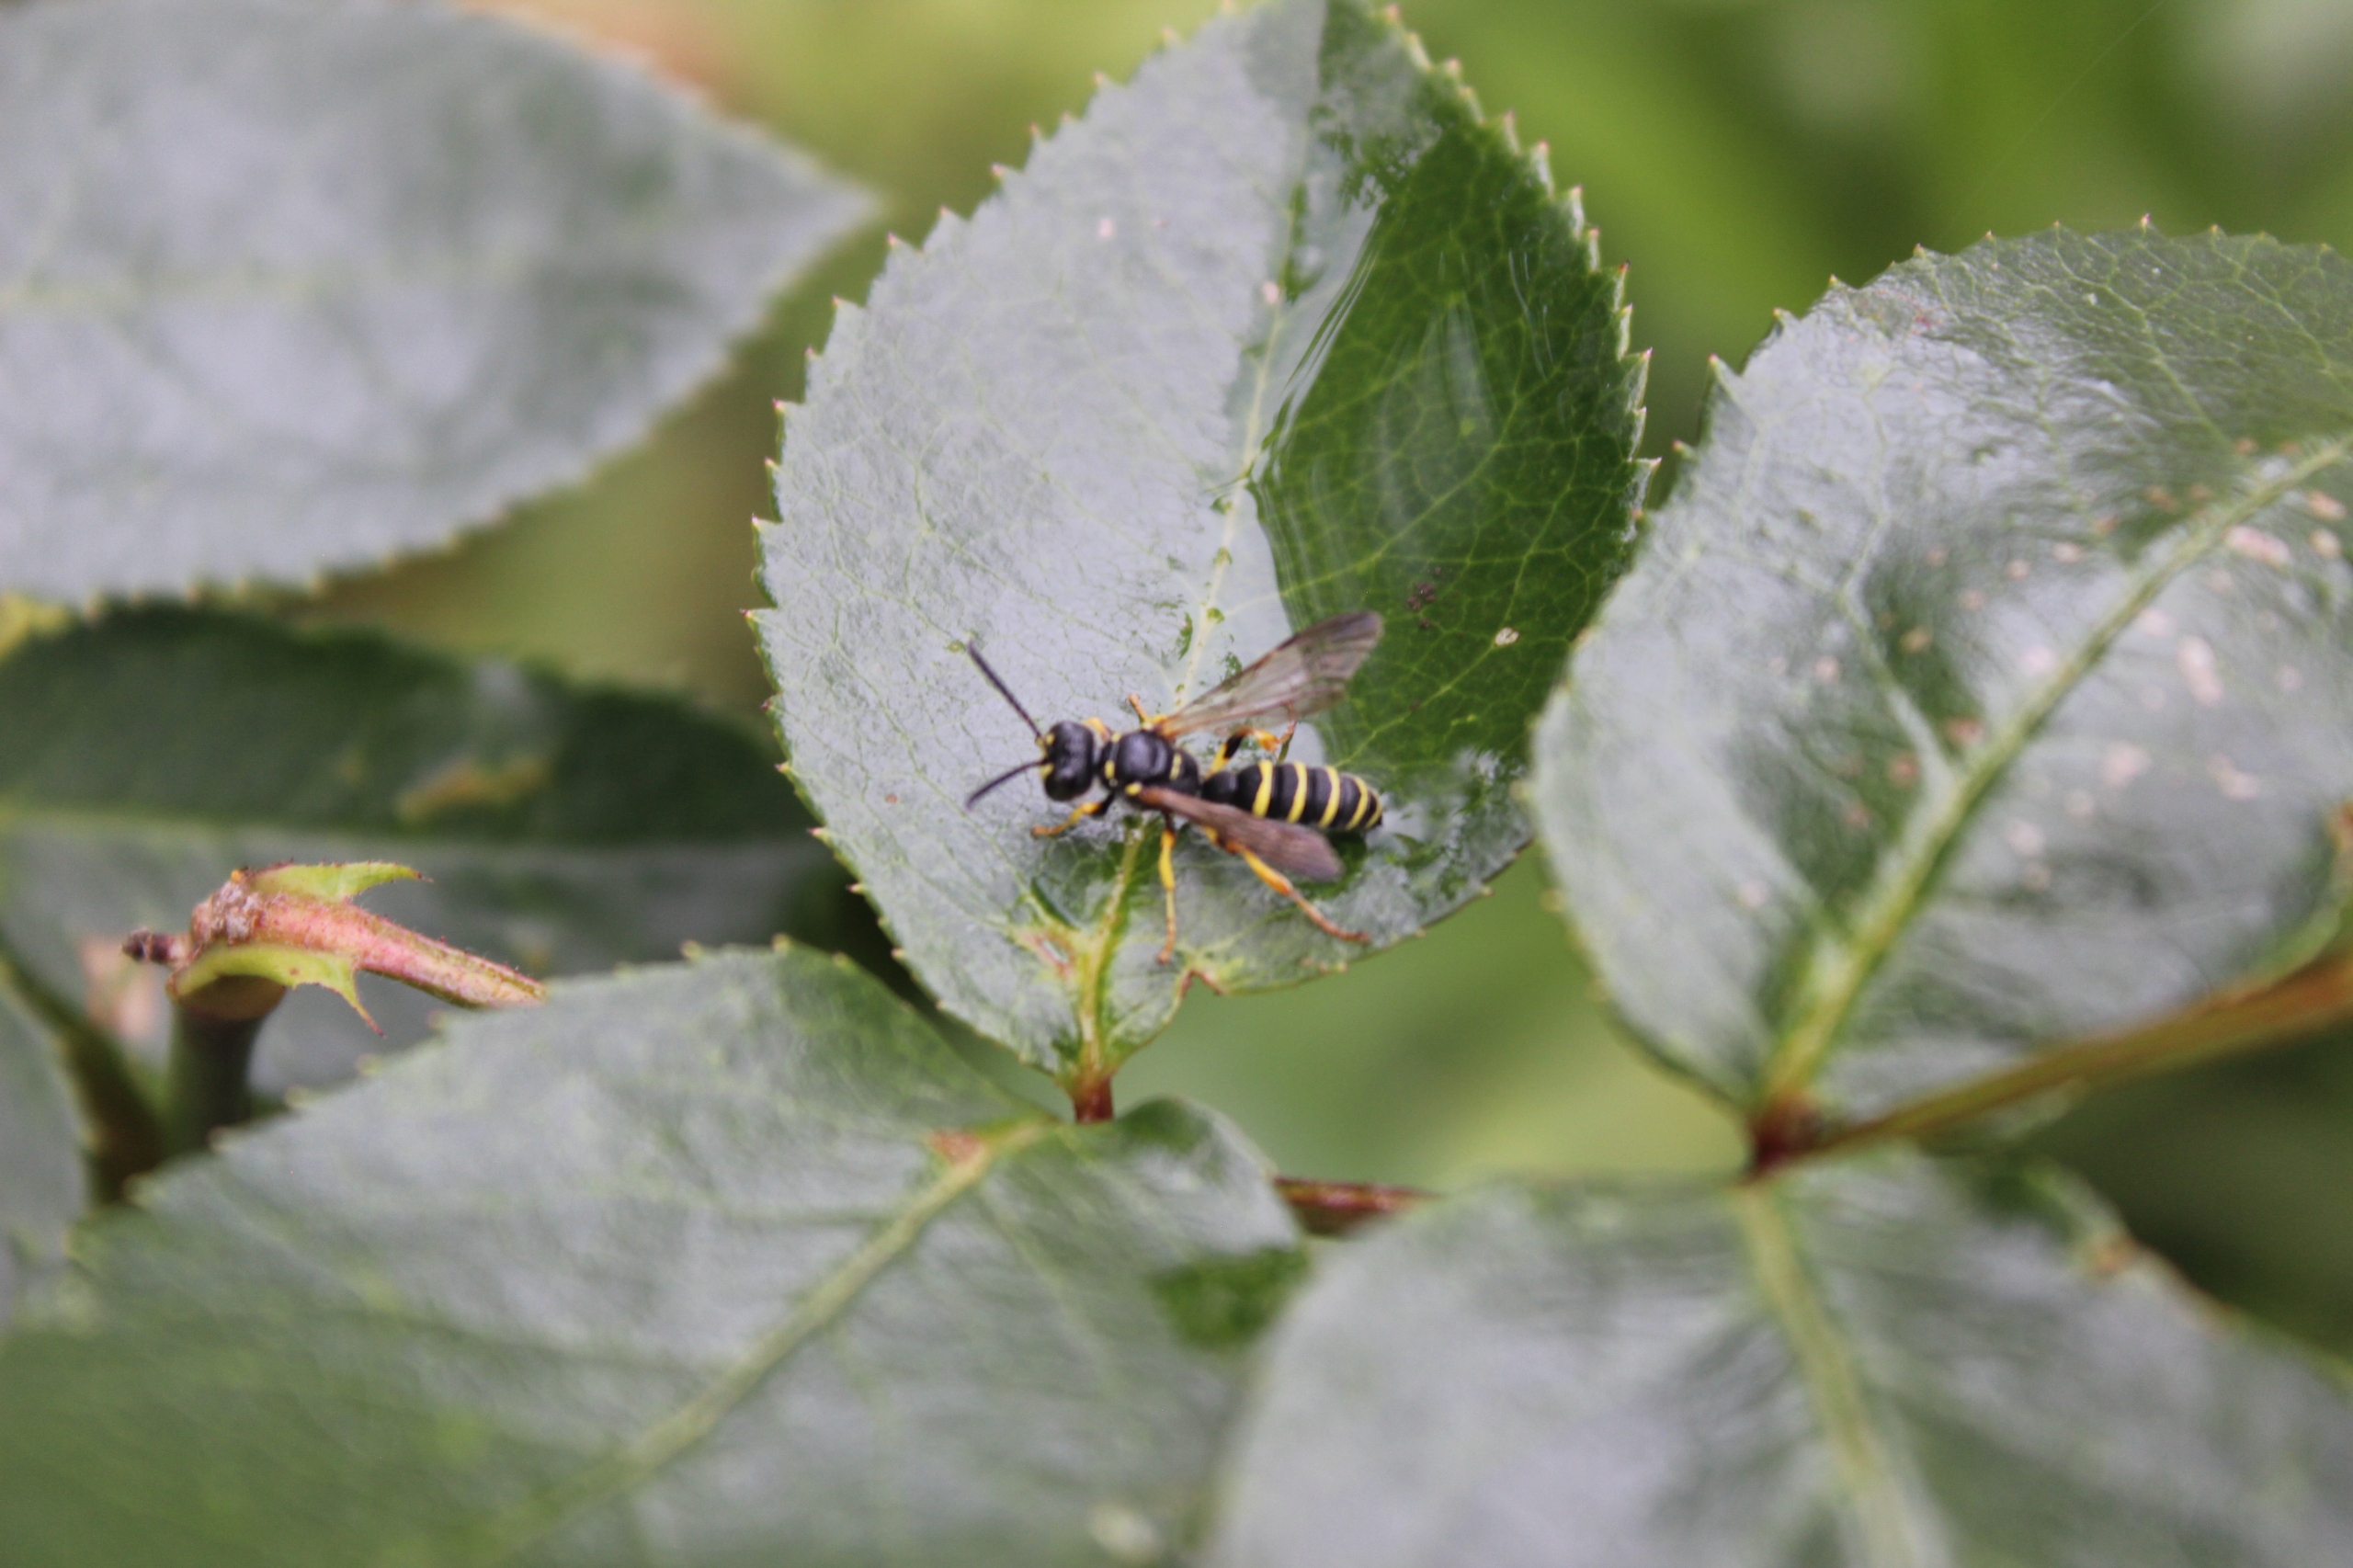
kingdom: Animalia
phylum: Arthropoda
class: Insecta
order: Hymenoptera
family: Crabronidae
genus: Cerceris
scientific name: Cerceris
